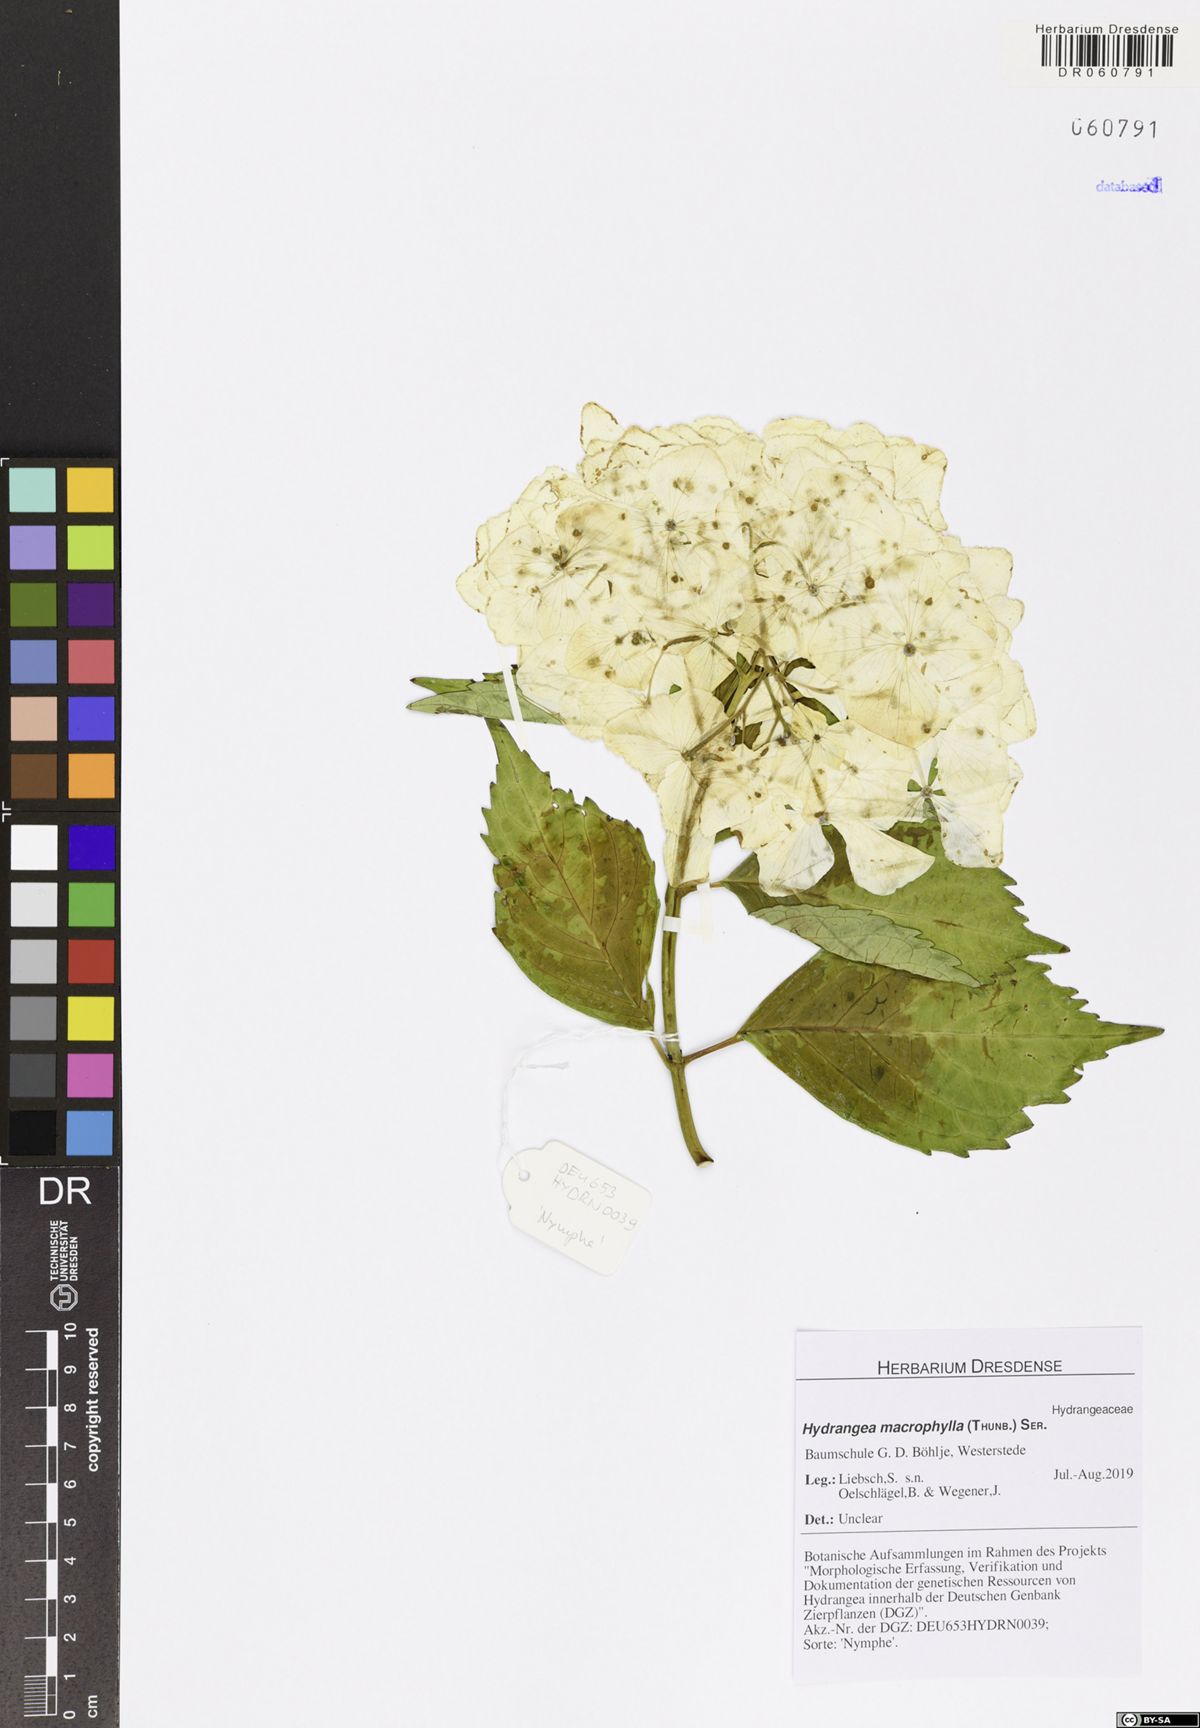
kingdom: Plantae
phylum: Tracheophyta
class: Magnoliopsida
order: Cornales
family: Hydrangeaceae
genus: Hydrangea
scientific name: Hydrangea macrophylla
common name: Hydrangea
